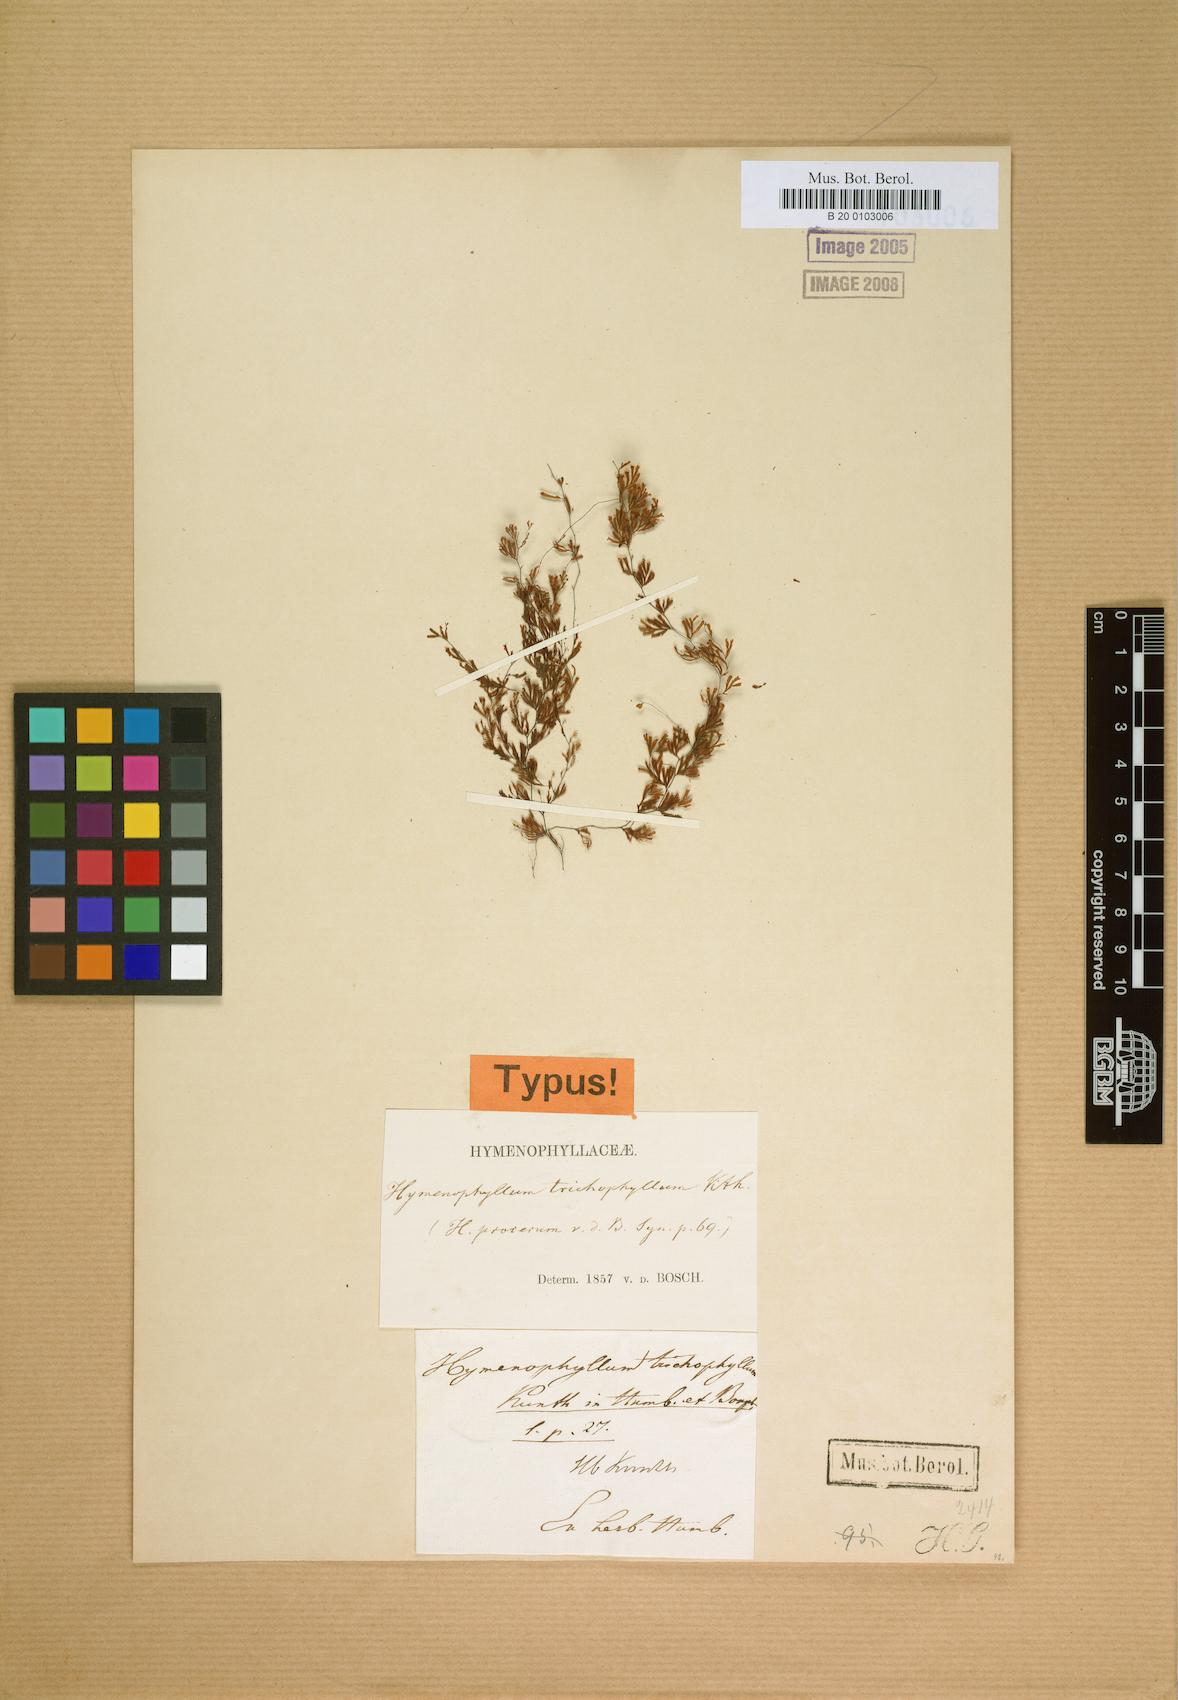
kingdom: Plantae
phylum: Tracheophyta
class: Polypodiopsida
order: Hymenophyllales
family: Hymenophyllaceae
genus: Hymenophyllum
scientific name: Hymenophyllum trichophyllum
